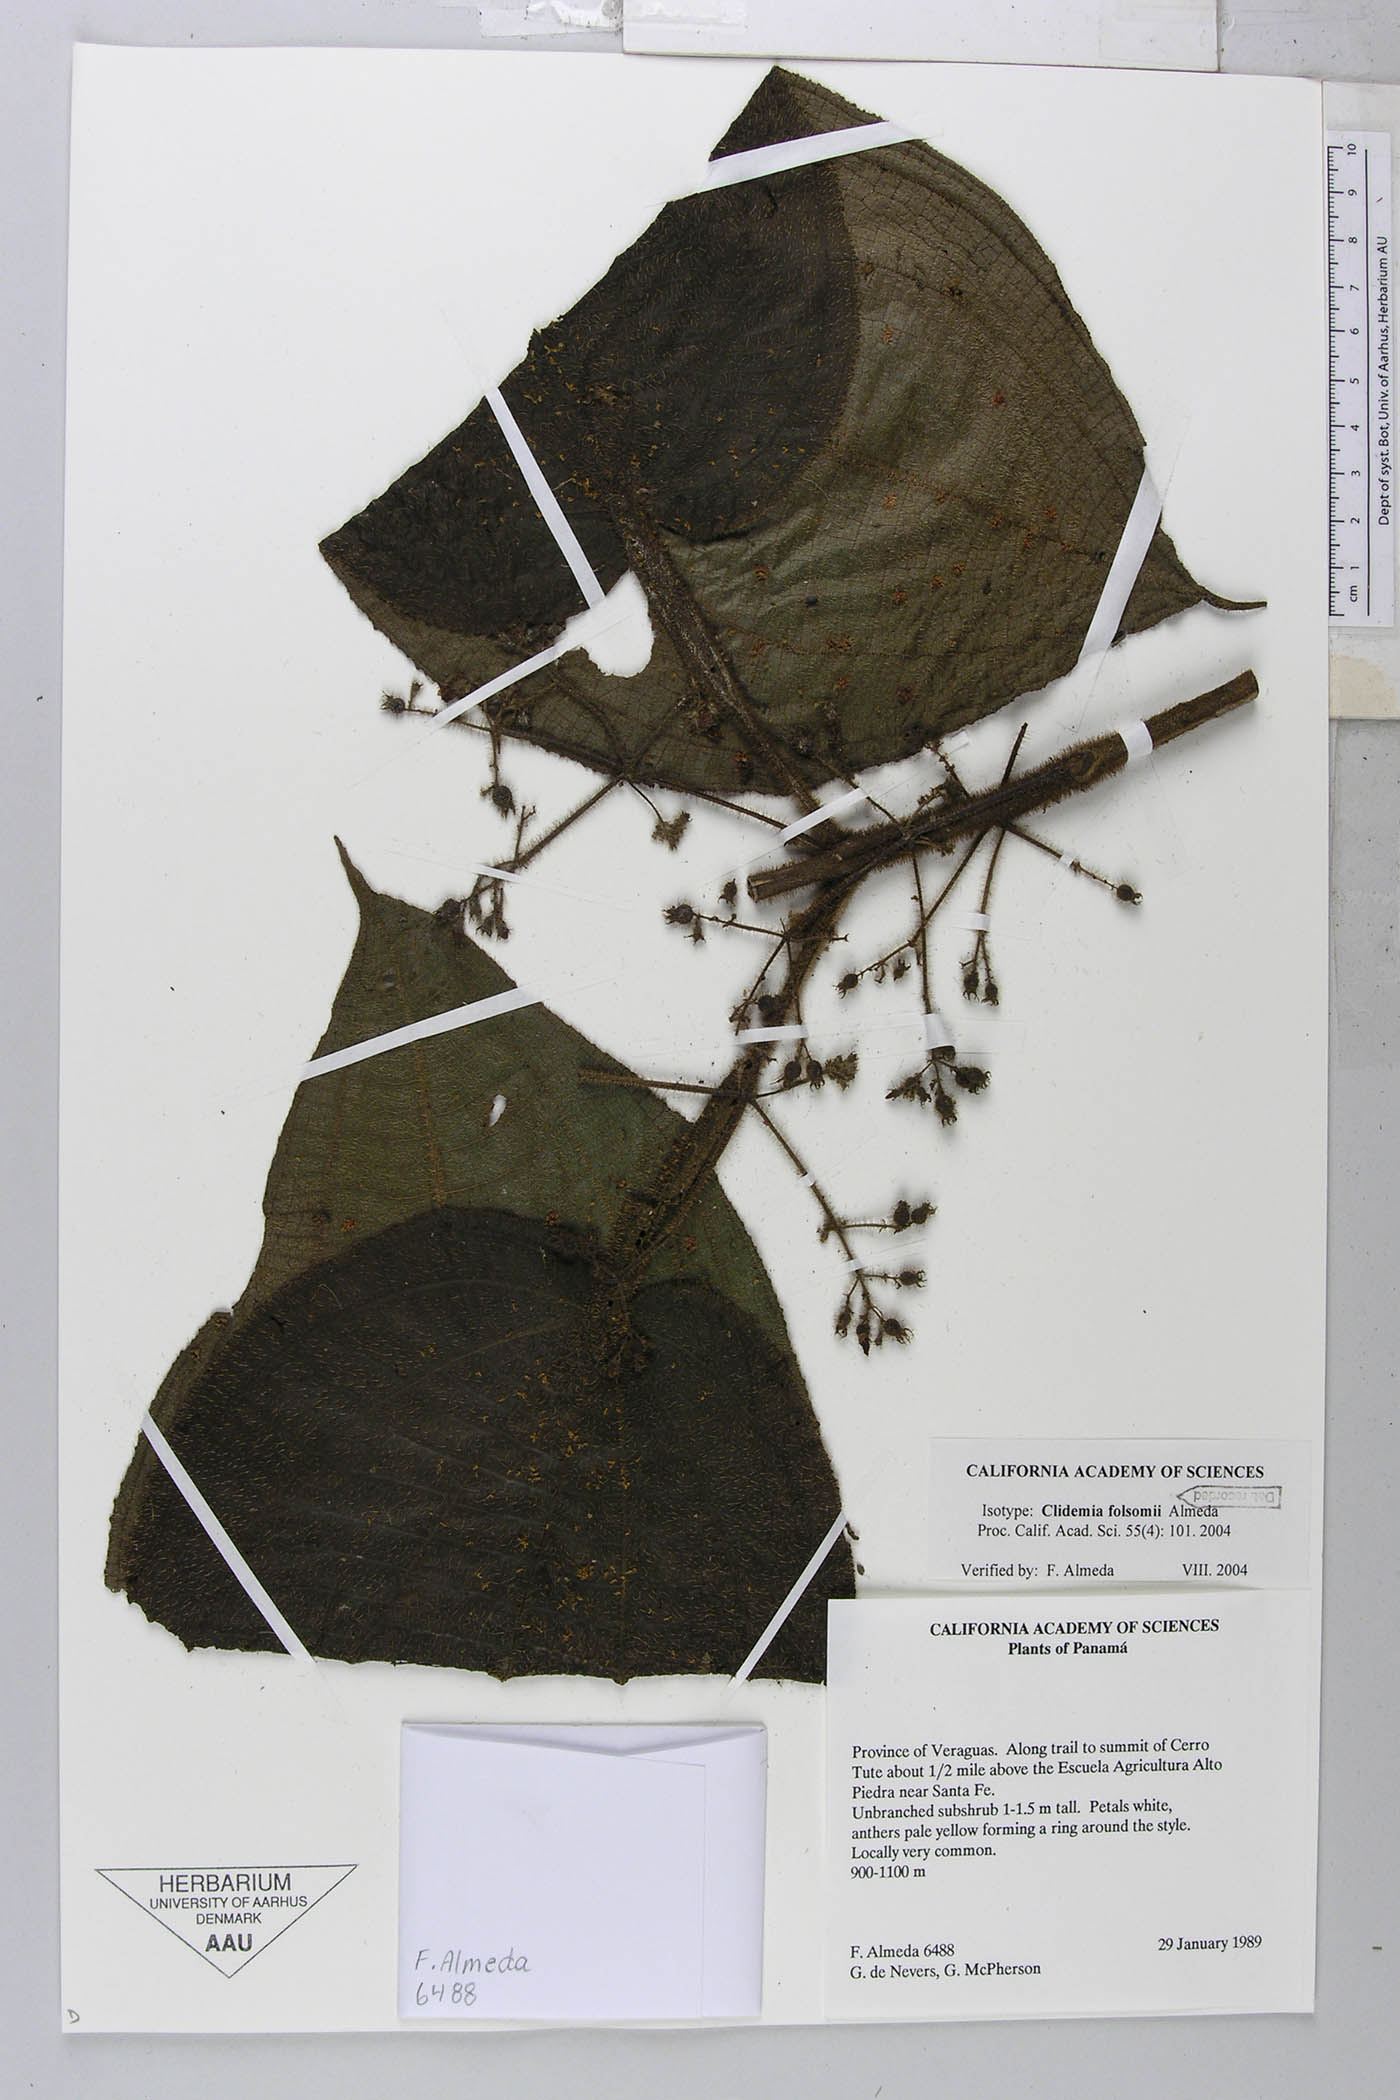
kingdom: Plantae
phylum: Tracheophyta
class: Magnoliopsida
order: Myrtales
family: Melastomataceae
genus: Miconia
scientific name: Miconia folsomii
